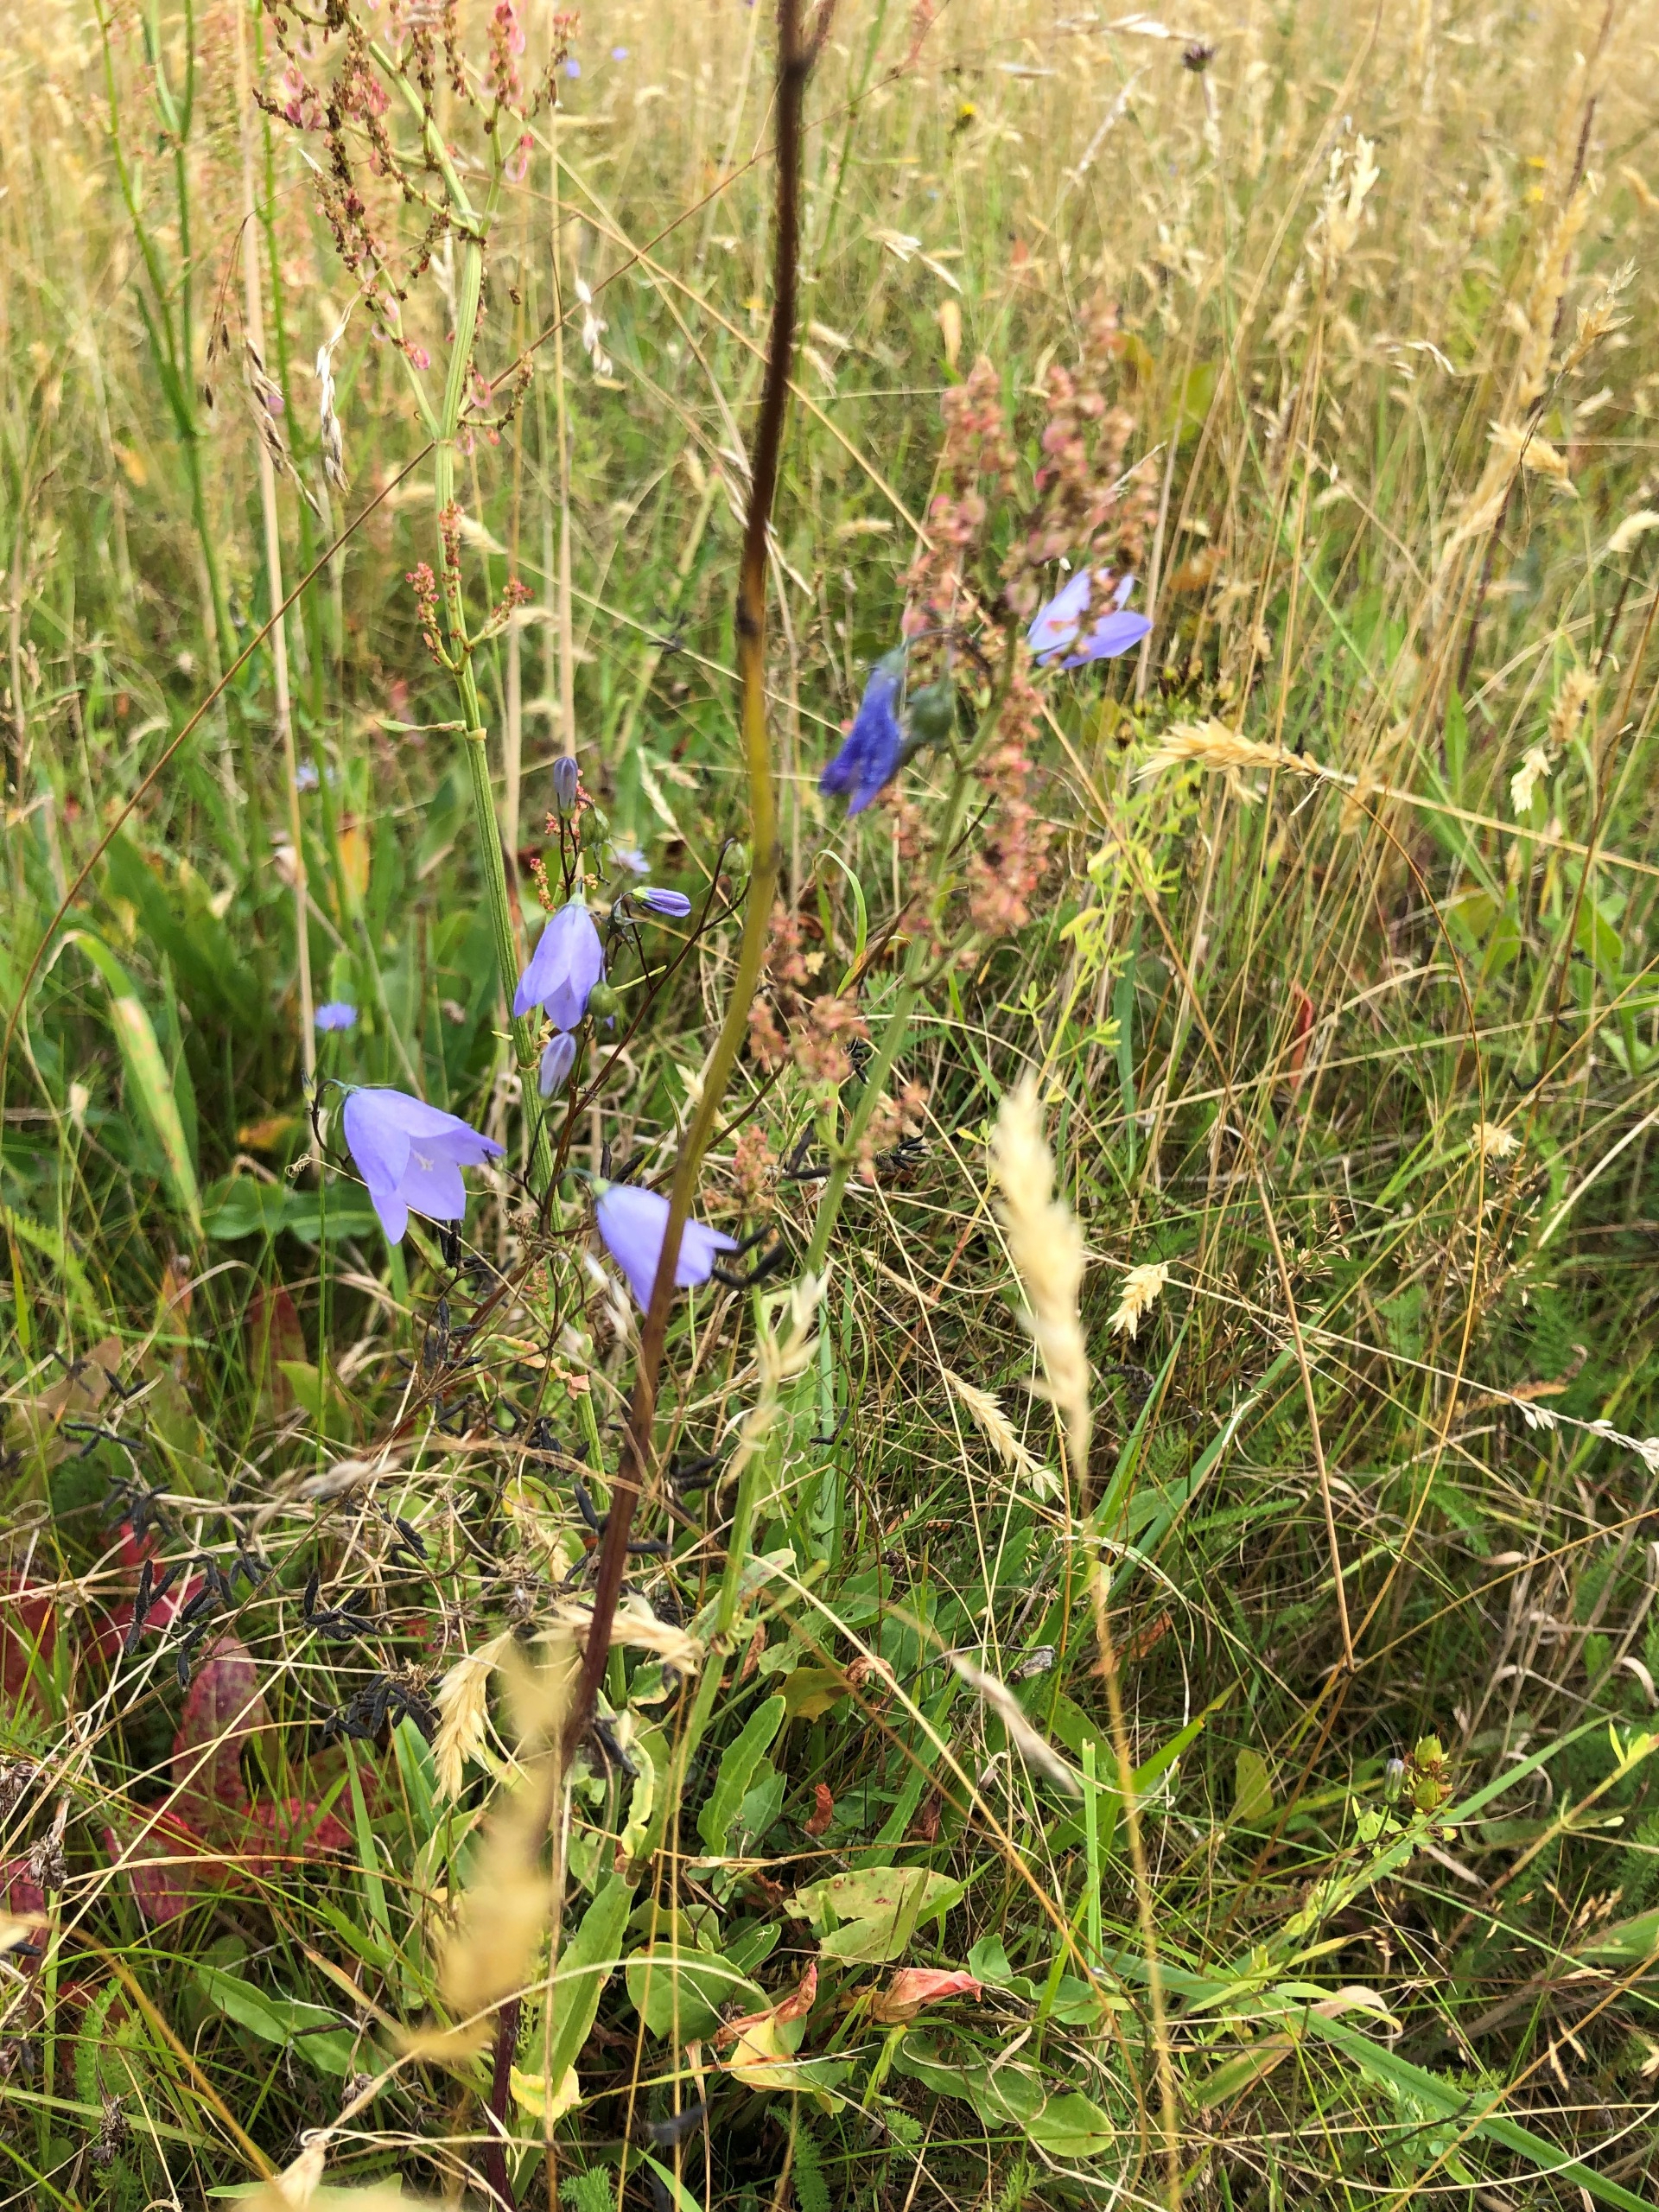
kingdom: Plantae
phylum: Tracheophyta
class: Magnoliopsida
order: Asterales
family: Campanulaceae
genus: Campanula
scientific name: Campanula rotundifolia
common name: Liden klokke
